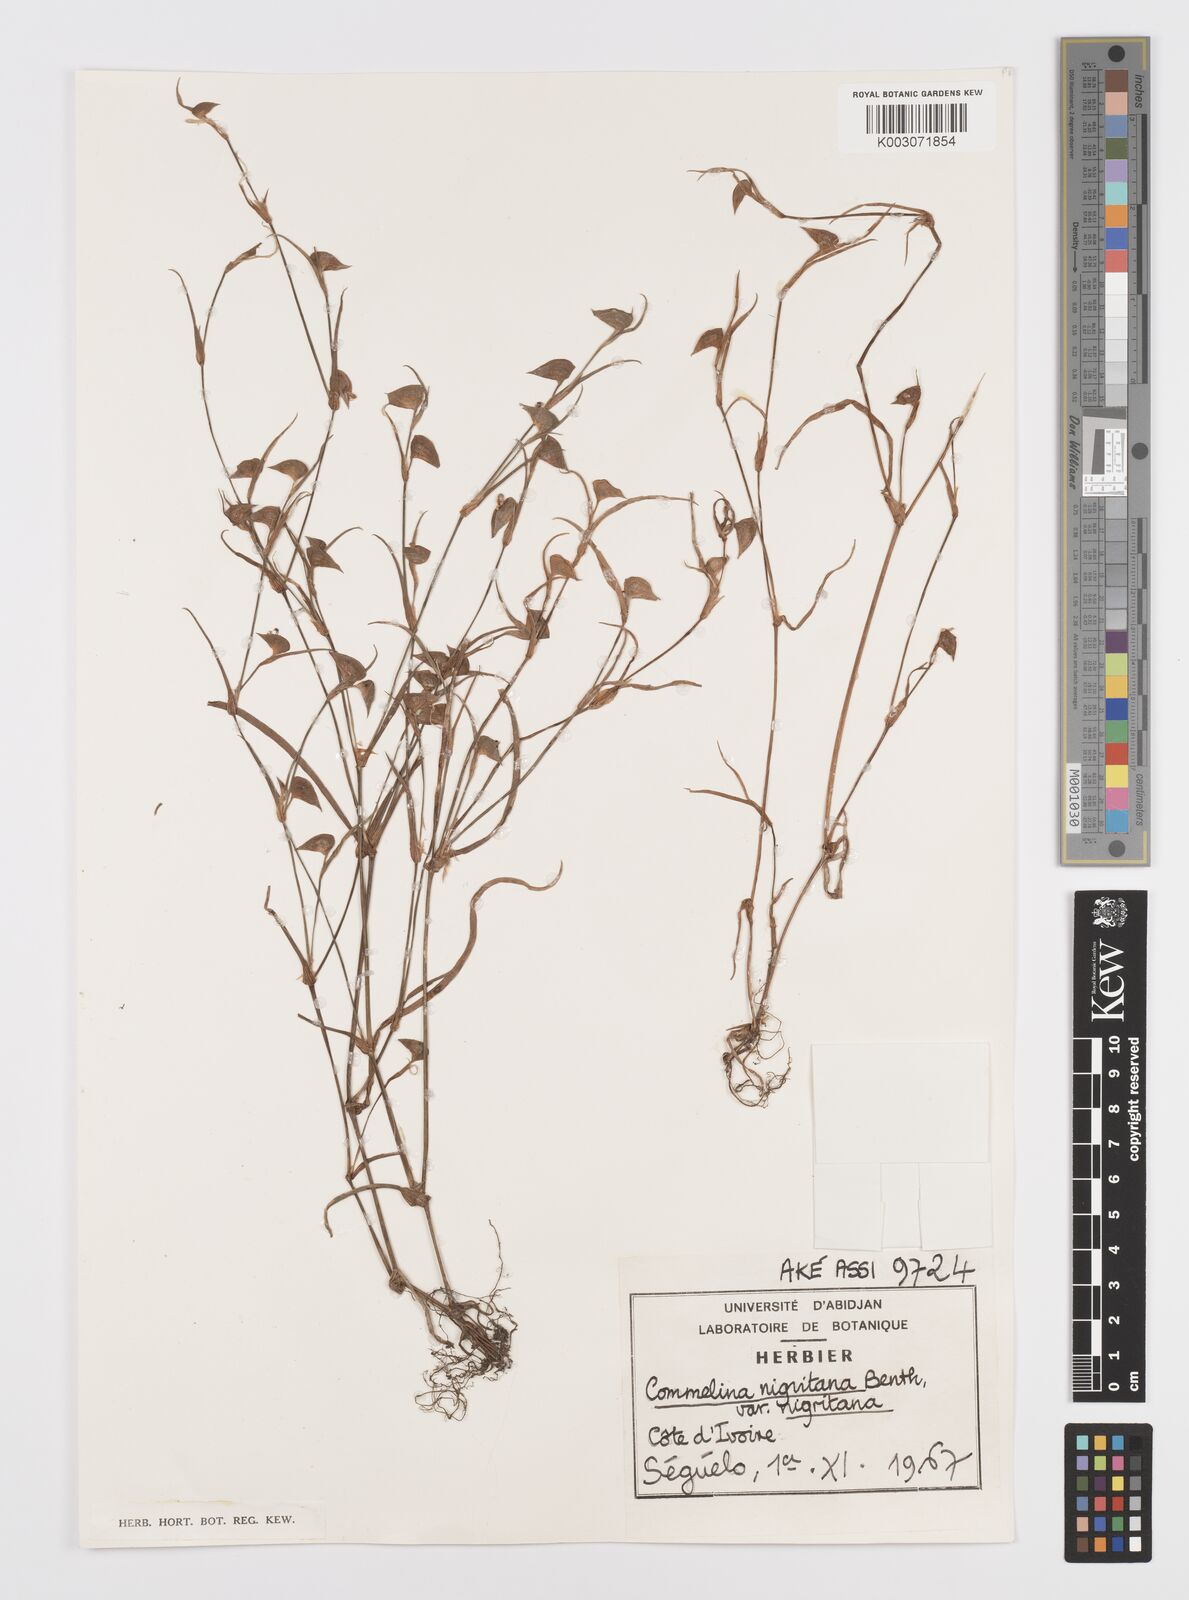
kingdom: Plantae
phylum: Tracheophyta
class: Liliopsida
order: Commelinales
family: Commelinaceae
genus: Commelina
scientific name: Commelina
